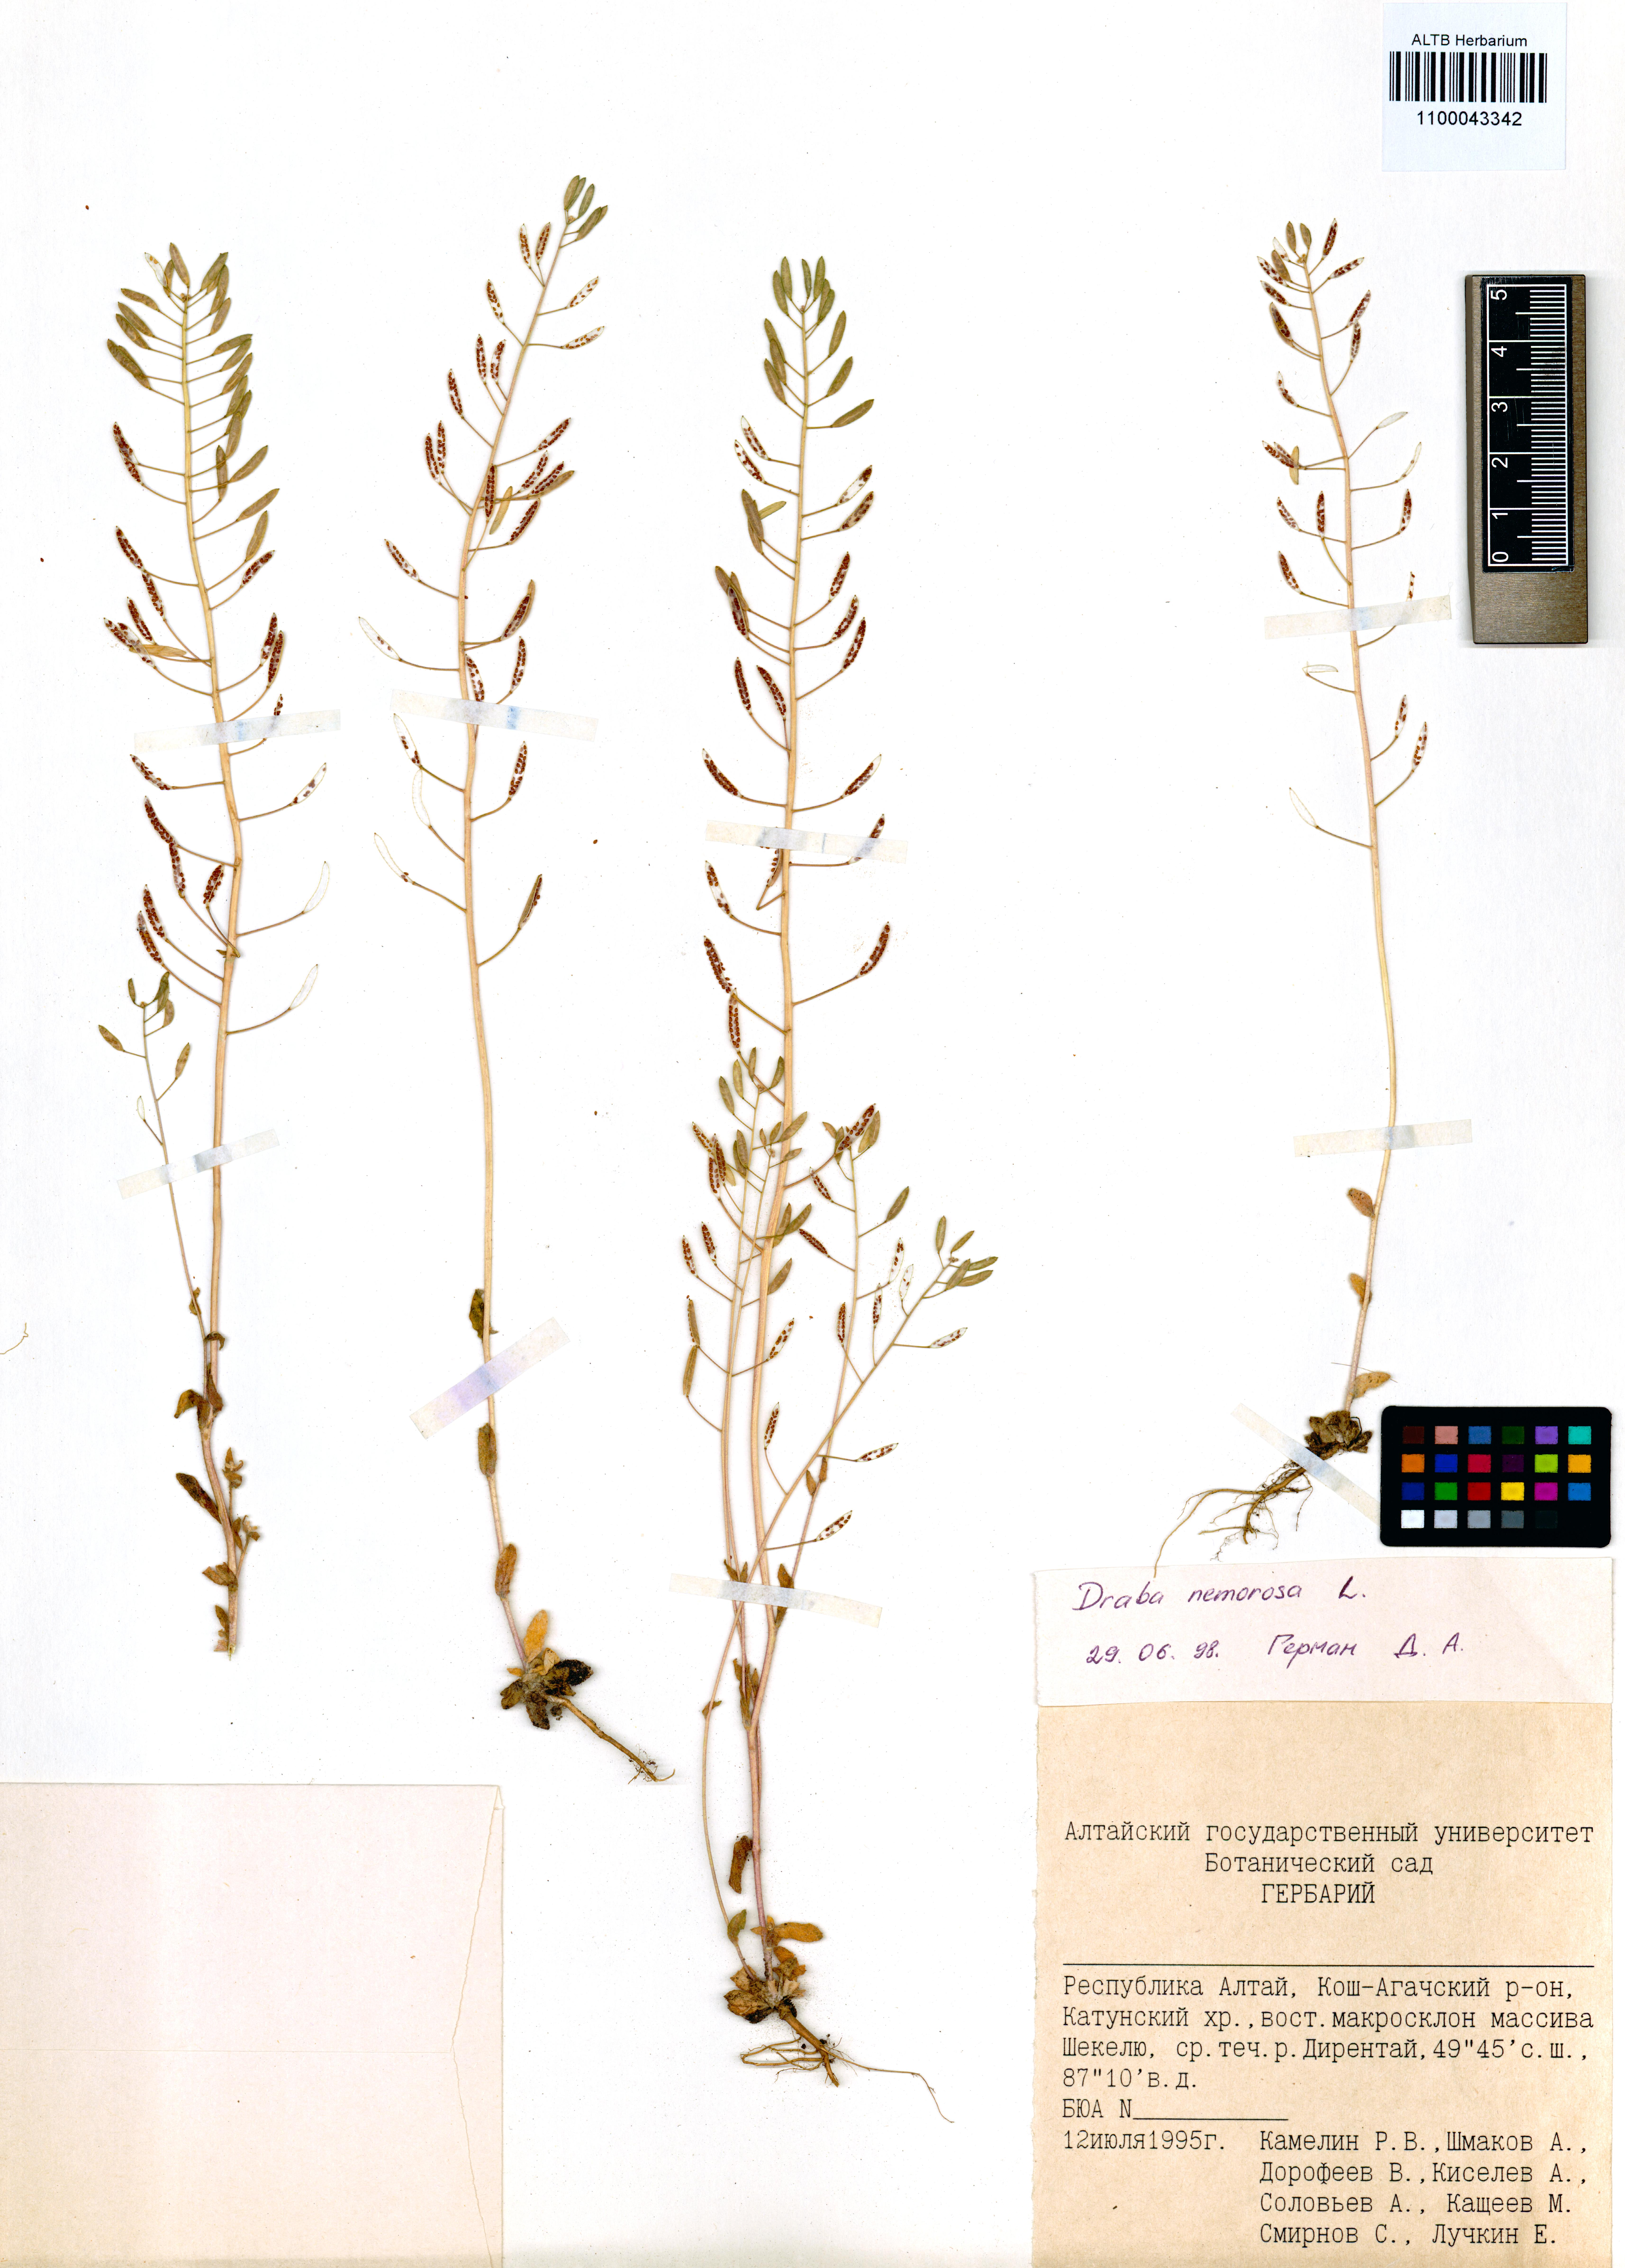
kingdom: Plantae
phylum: Tracheophyta
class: Magnoliopsida
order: Brassicales
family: Brassicaceae
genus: Draba
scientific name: Draba nemorosa
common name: Wood whitlow-grass
